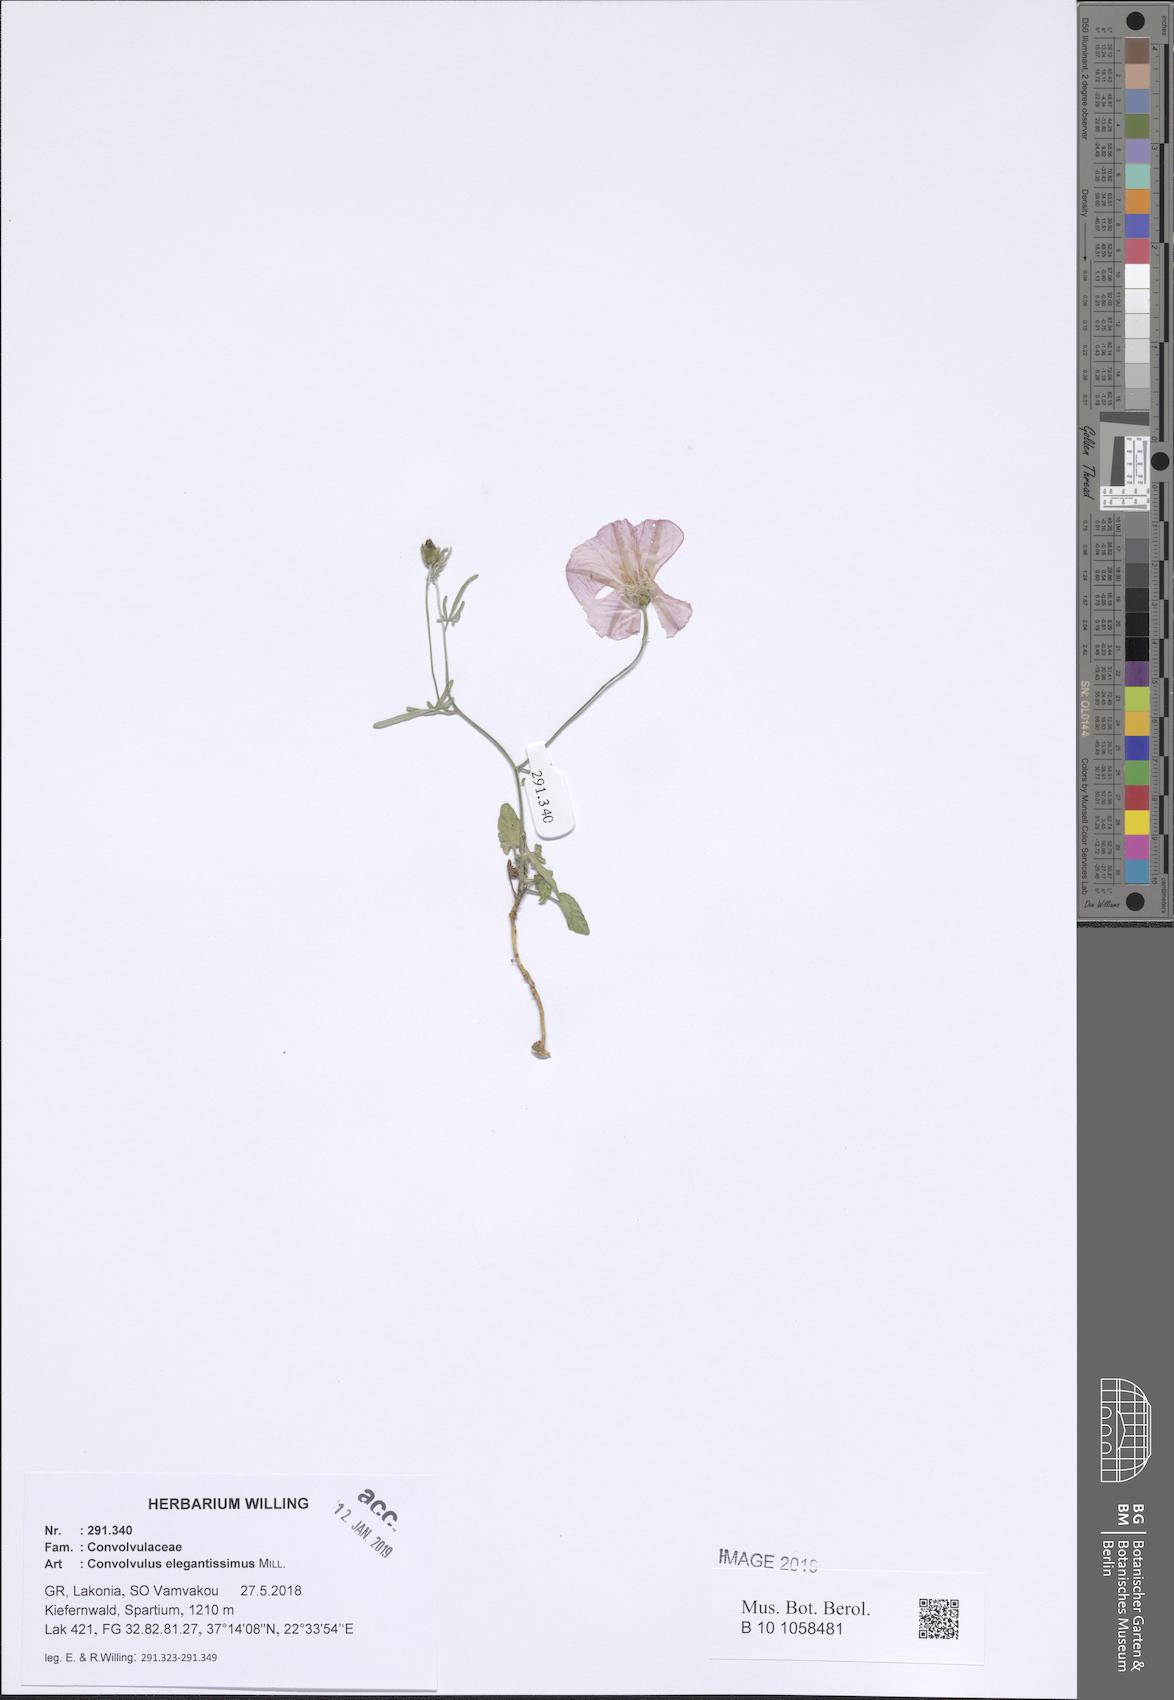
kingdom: Plantae
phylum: Tracheophyta
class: Magnoliopsida
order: Solanales
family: Convolvulaceae
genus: Convolvulus
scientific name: Convolvulus elegantissimus
